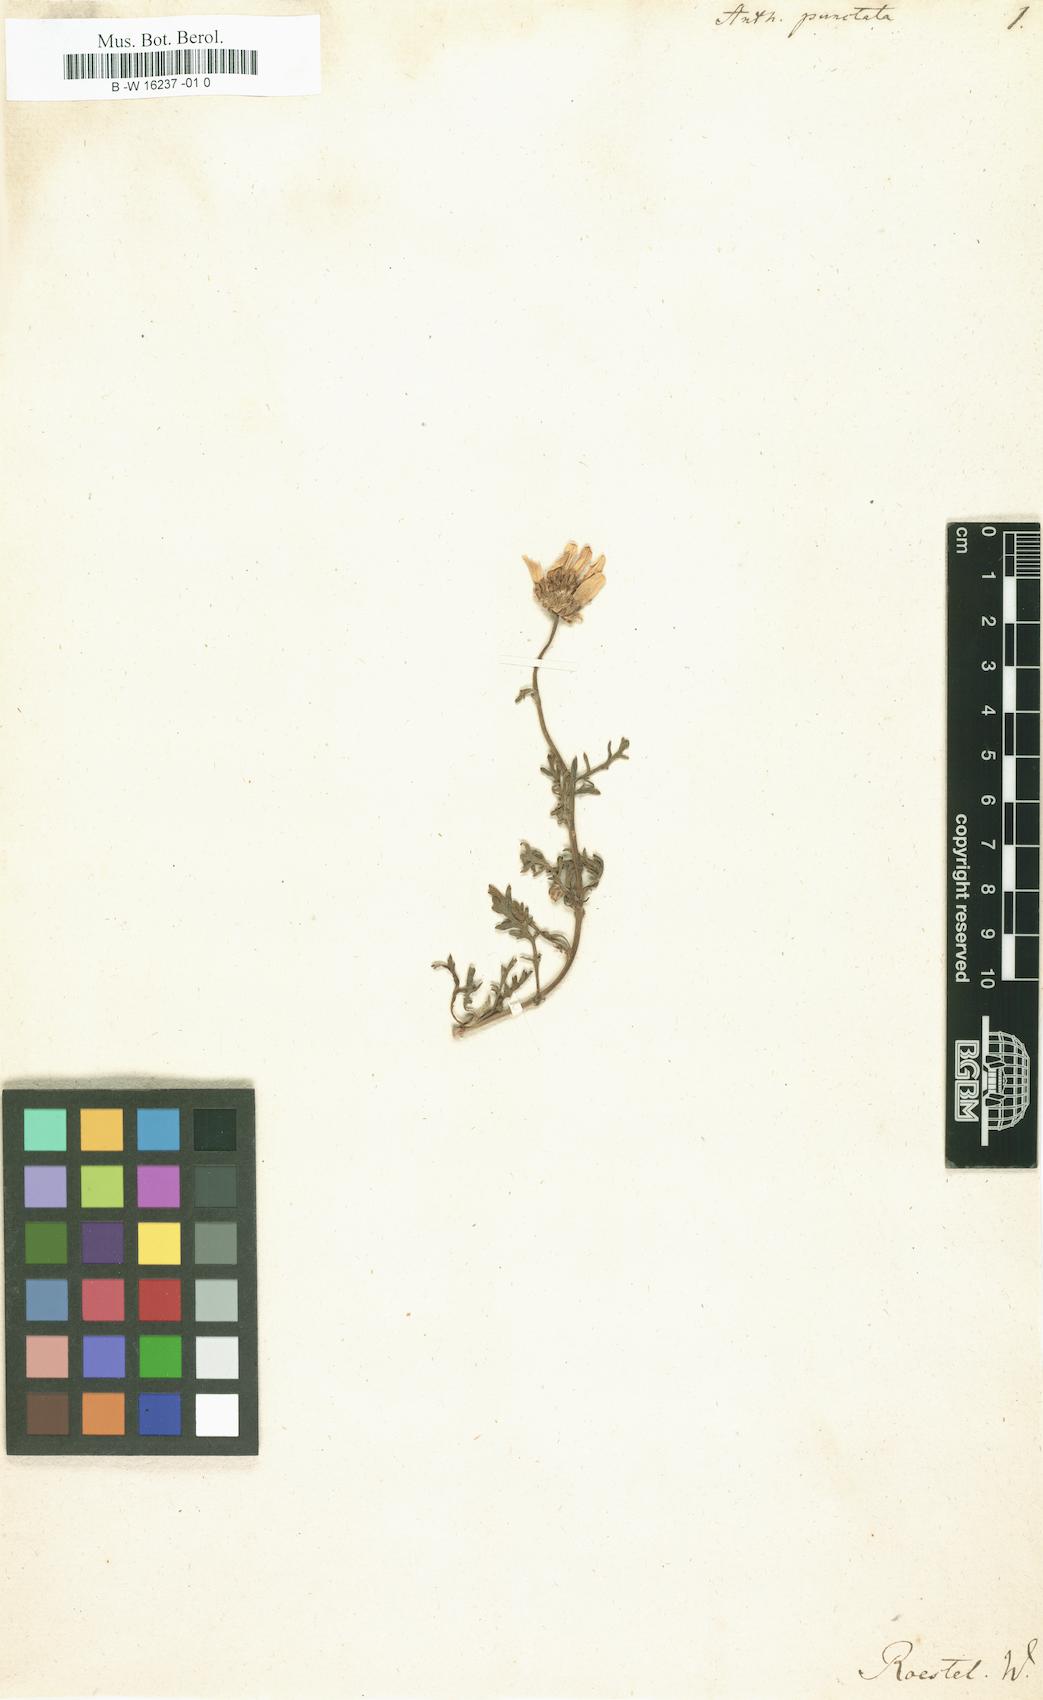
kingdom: Plantae
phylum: Tracheophyta
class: Magnoliopsida
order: Asterales
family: Asteraceae
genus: Anthemis
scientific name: Anthemis punctata
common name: Sicilian chamomile
